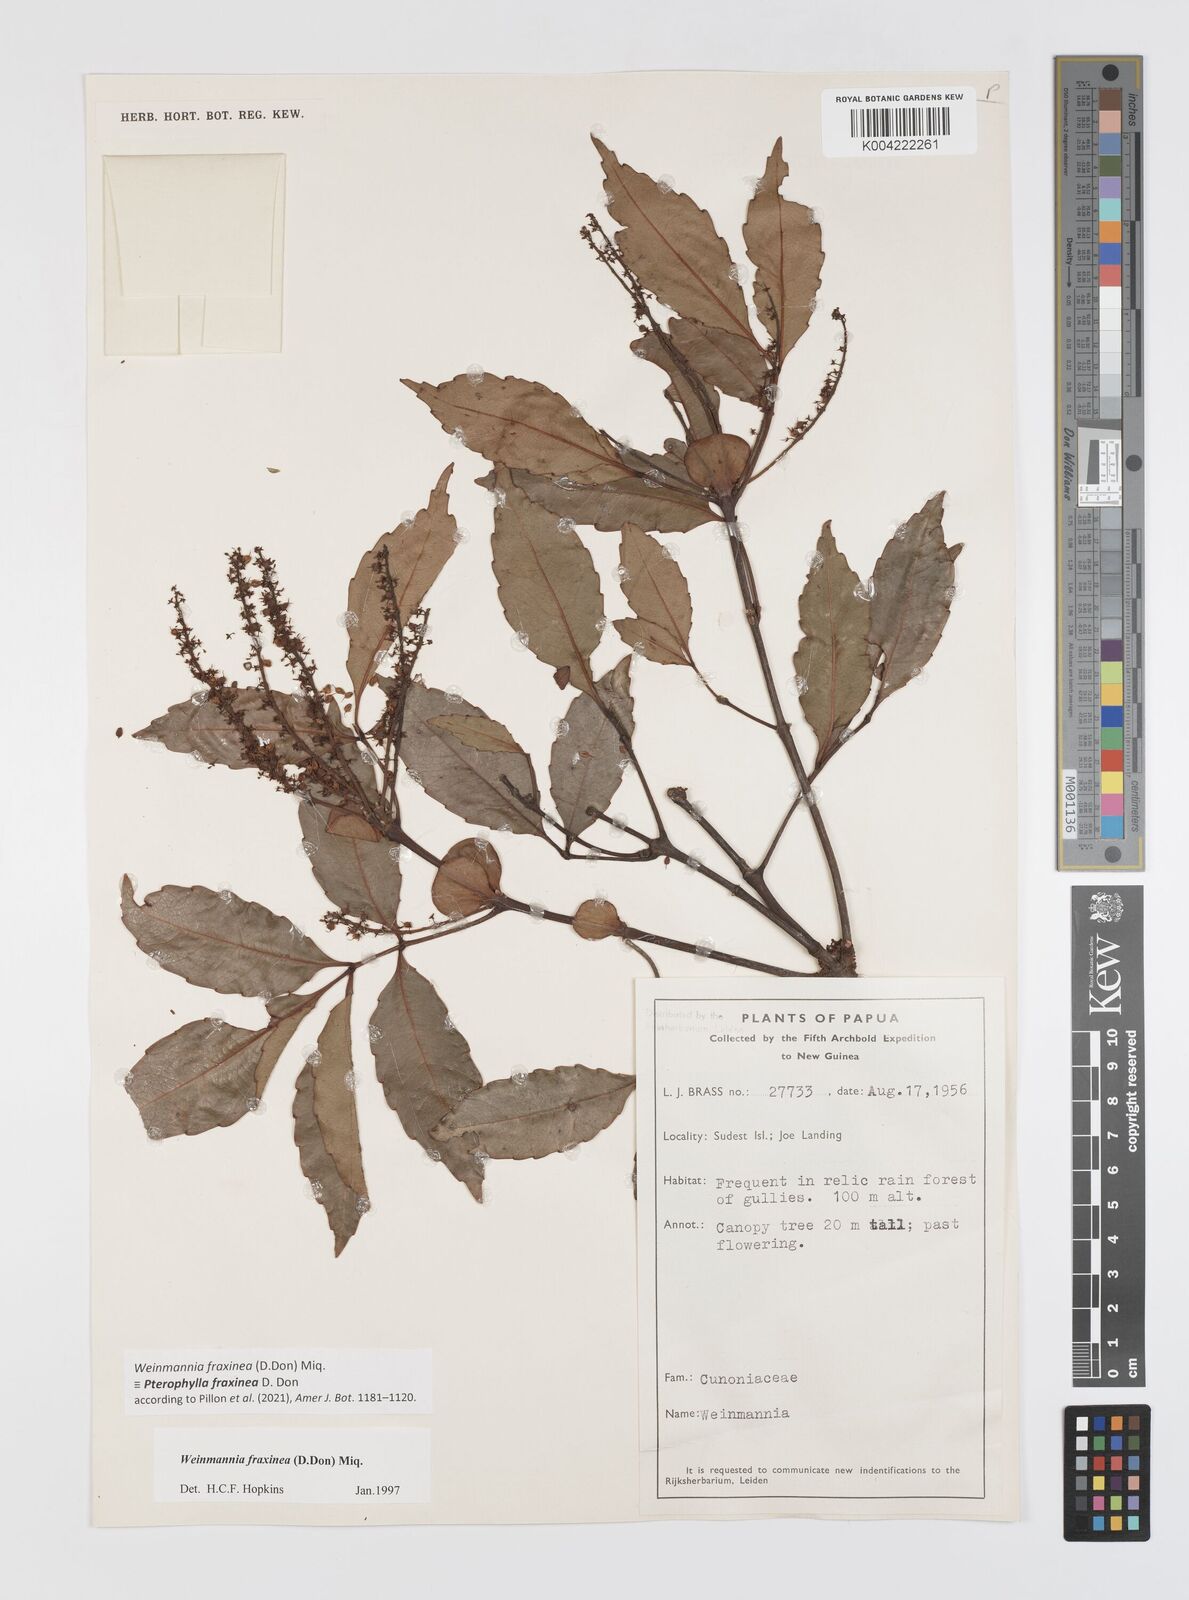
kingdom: Plantae
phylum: Tracheophyta
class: Magnoliopsida
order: Oxalidales
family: Cunoniaceae
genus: Pterophylla
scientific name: Pterophylla fraxinea
